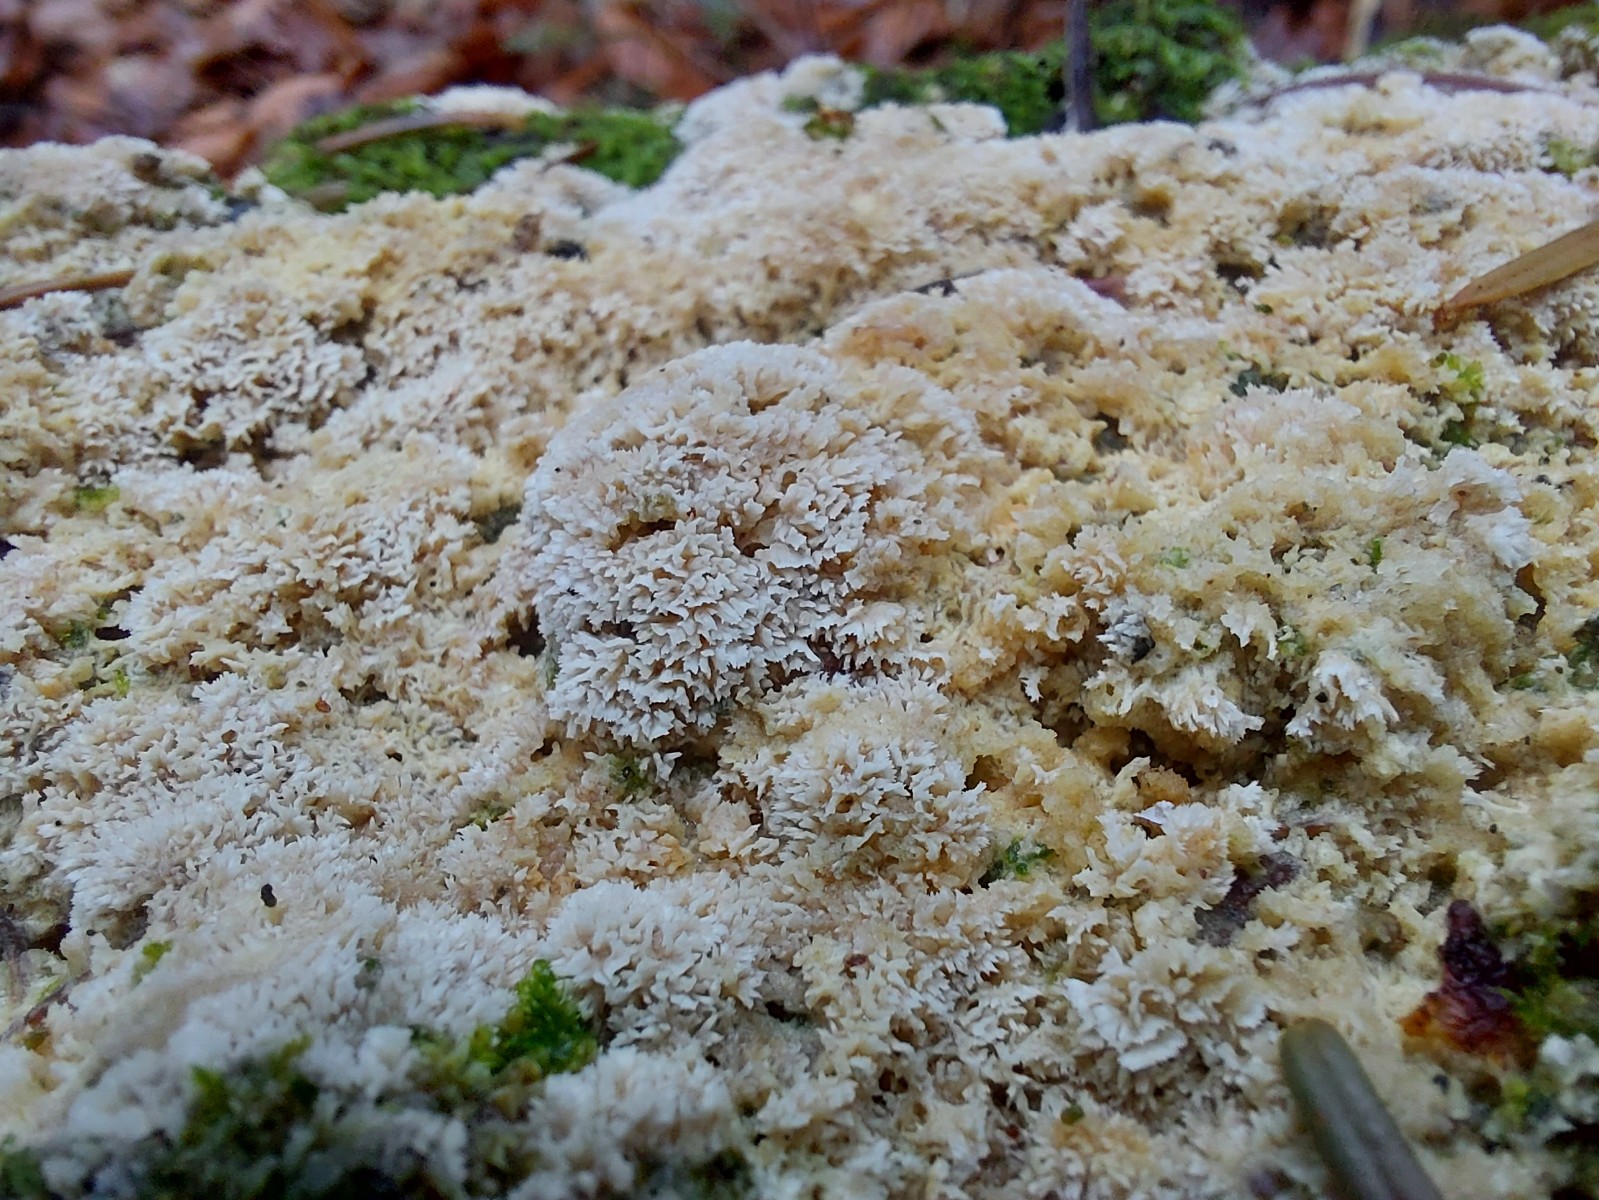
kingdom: Fungi
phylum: Basidiomycota
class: Agaricomycetes
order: Corticiales
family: Corticiaceae
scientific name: Corticiaceae
